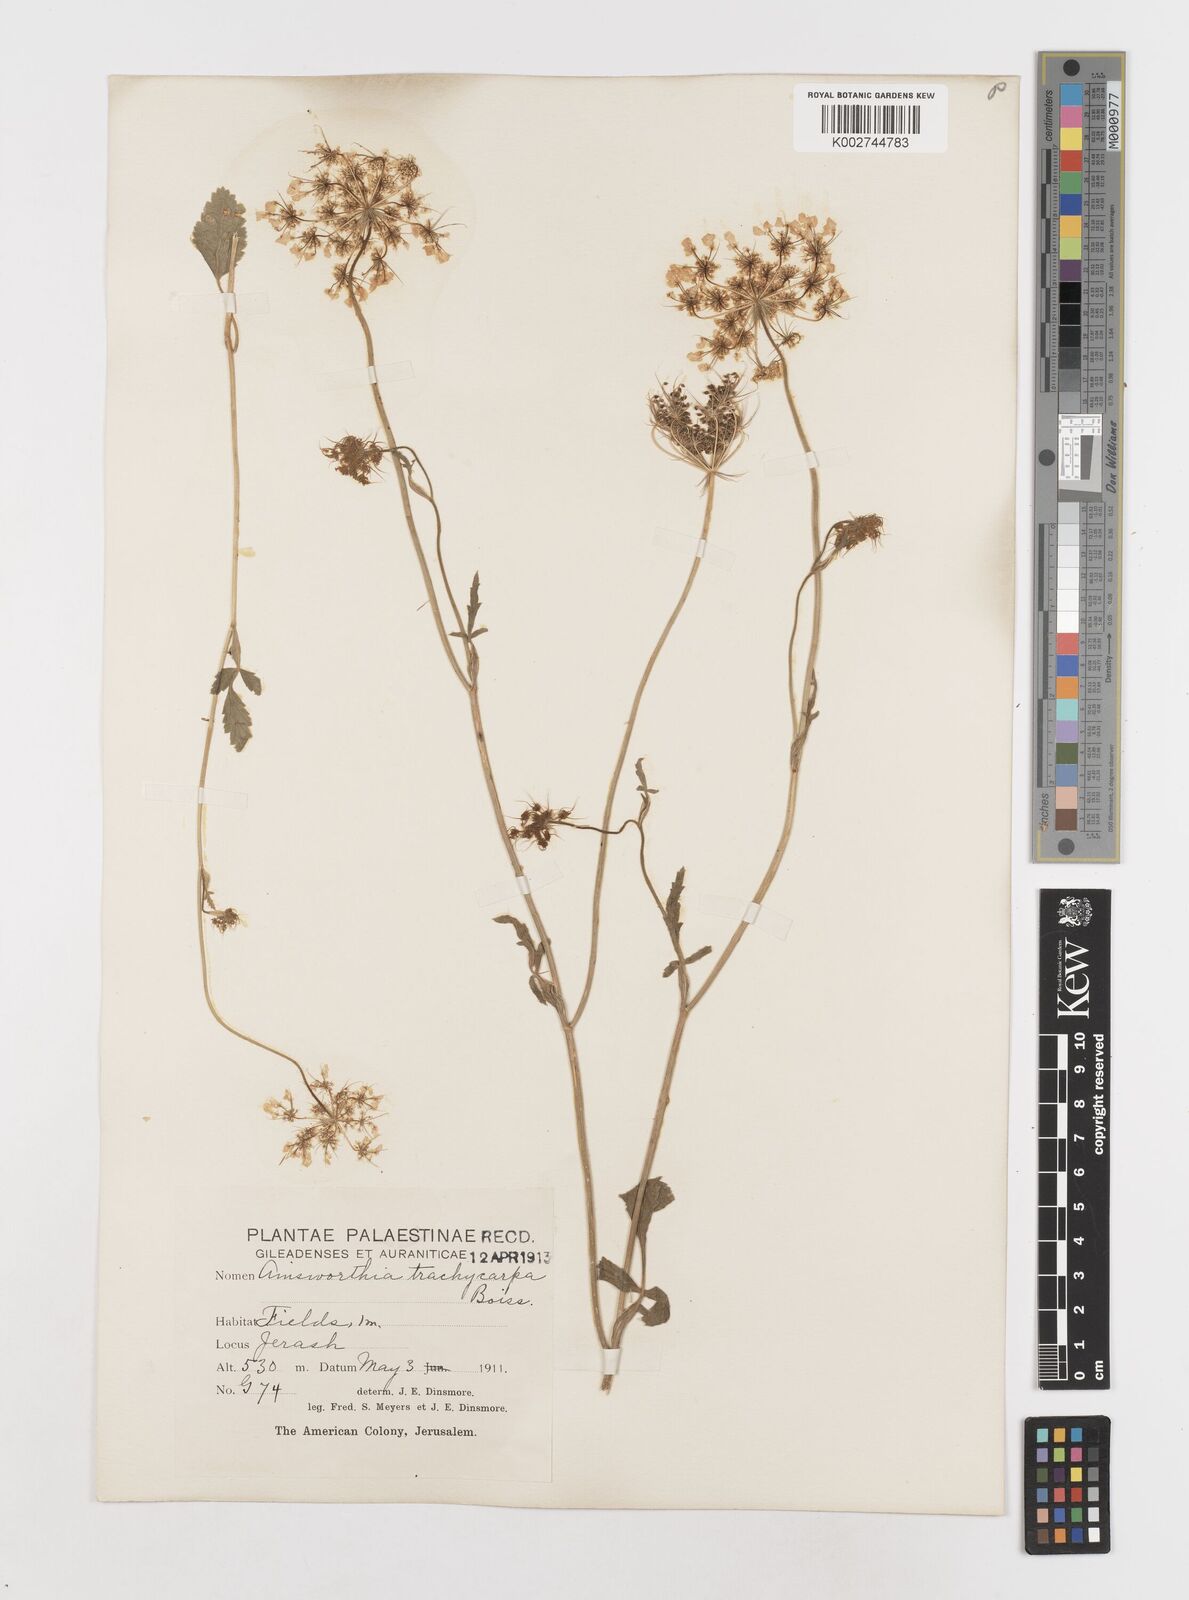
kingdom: Plantae
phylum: Tracheophyta
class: Magnoliopsida
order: Apiales
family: Apiaceae
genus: Ainsworthia
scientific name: Ainsworthia trachycarpa
